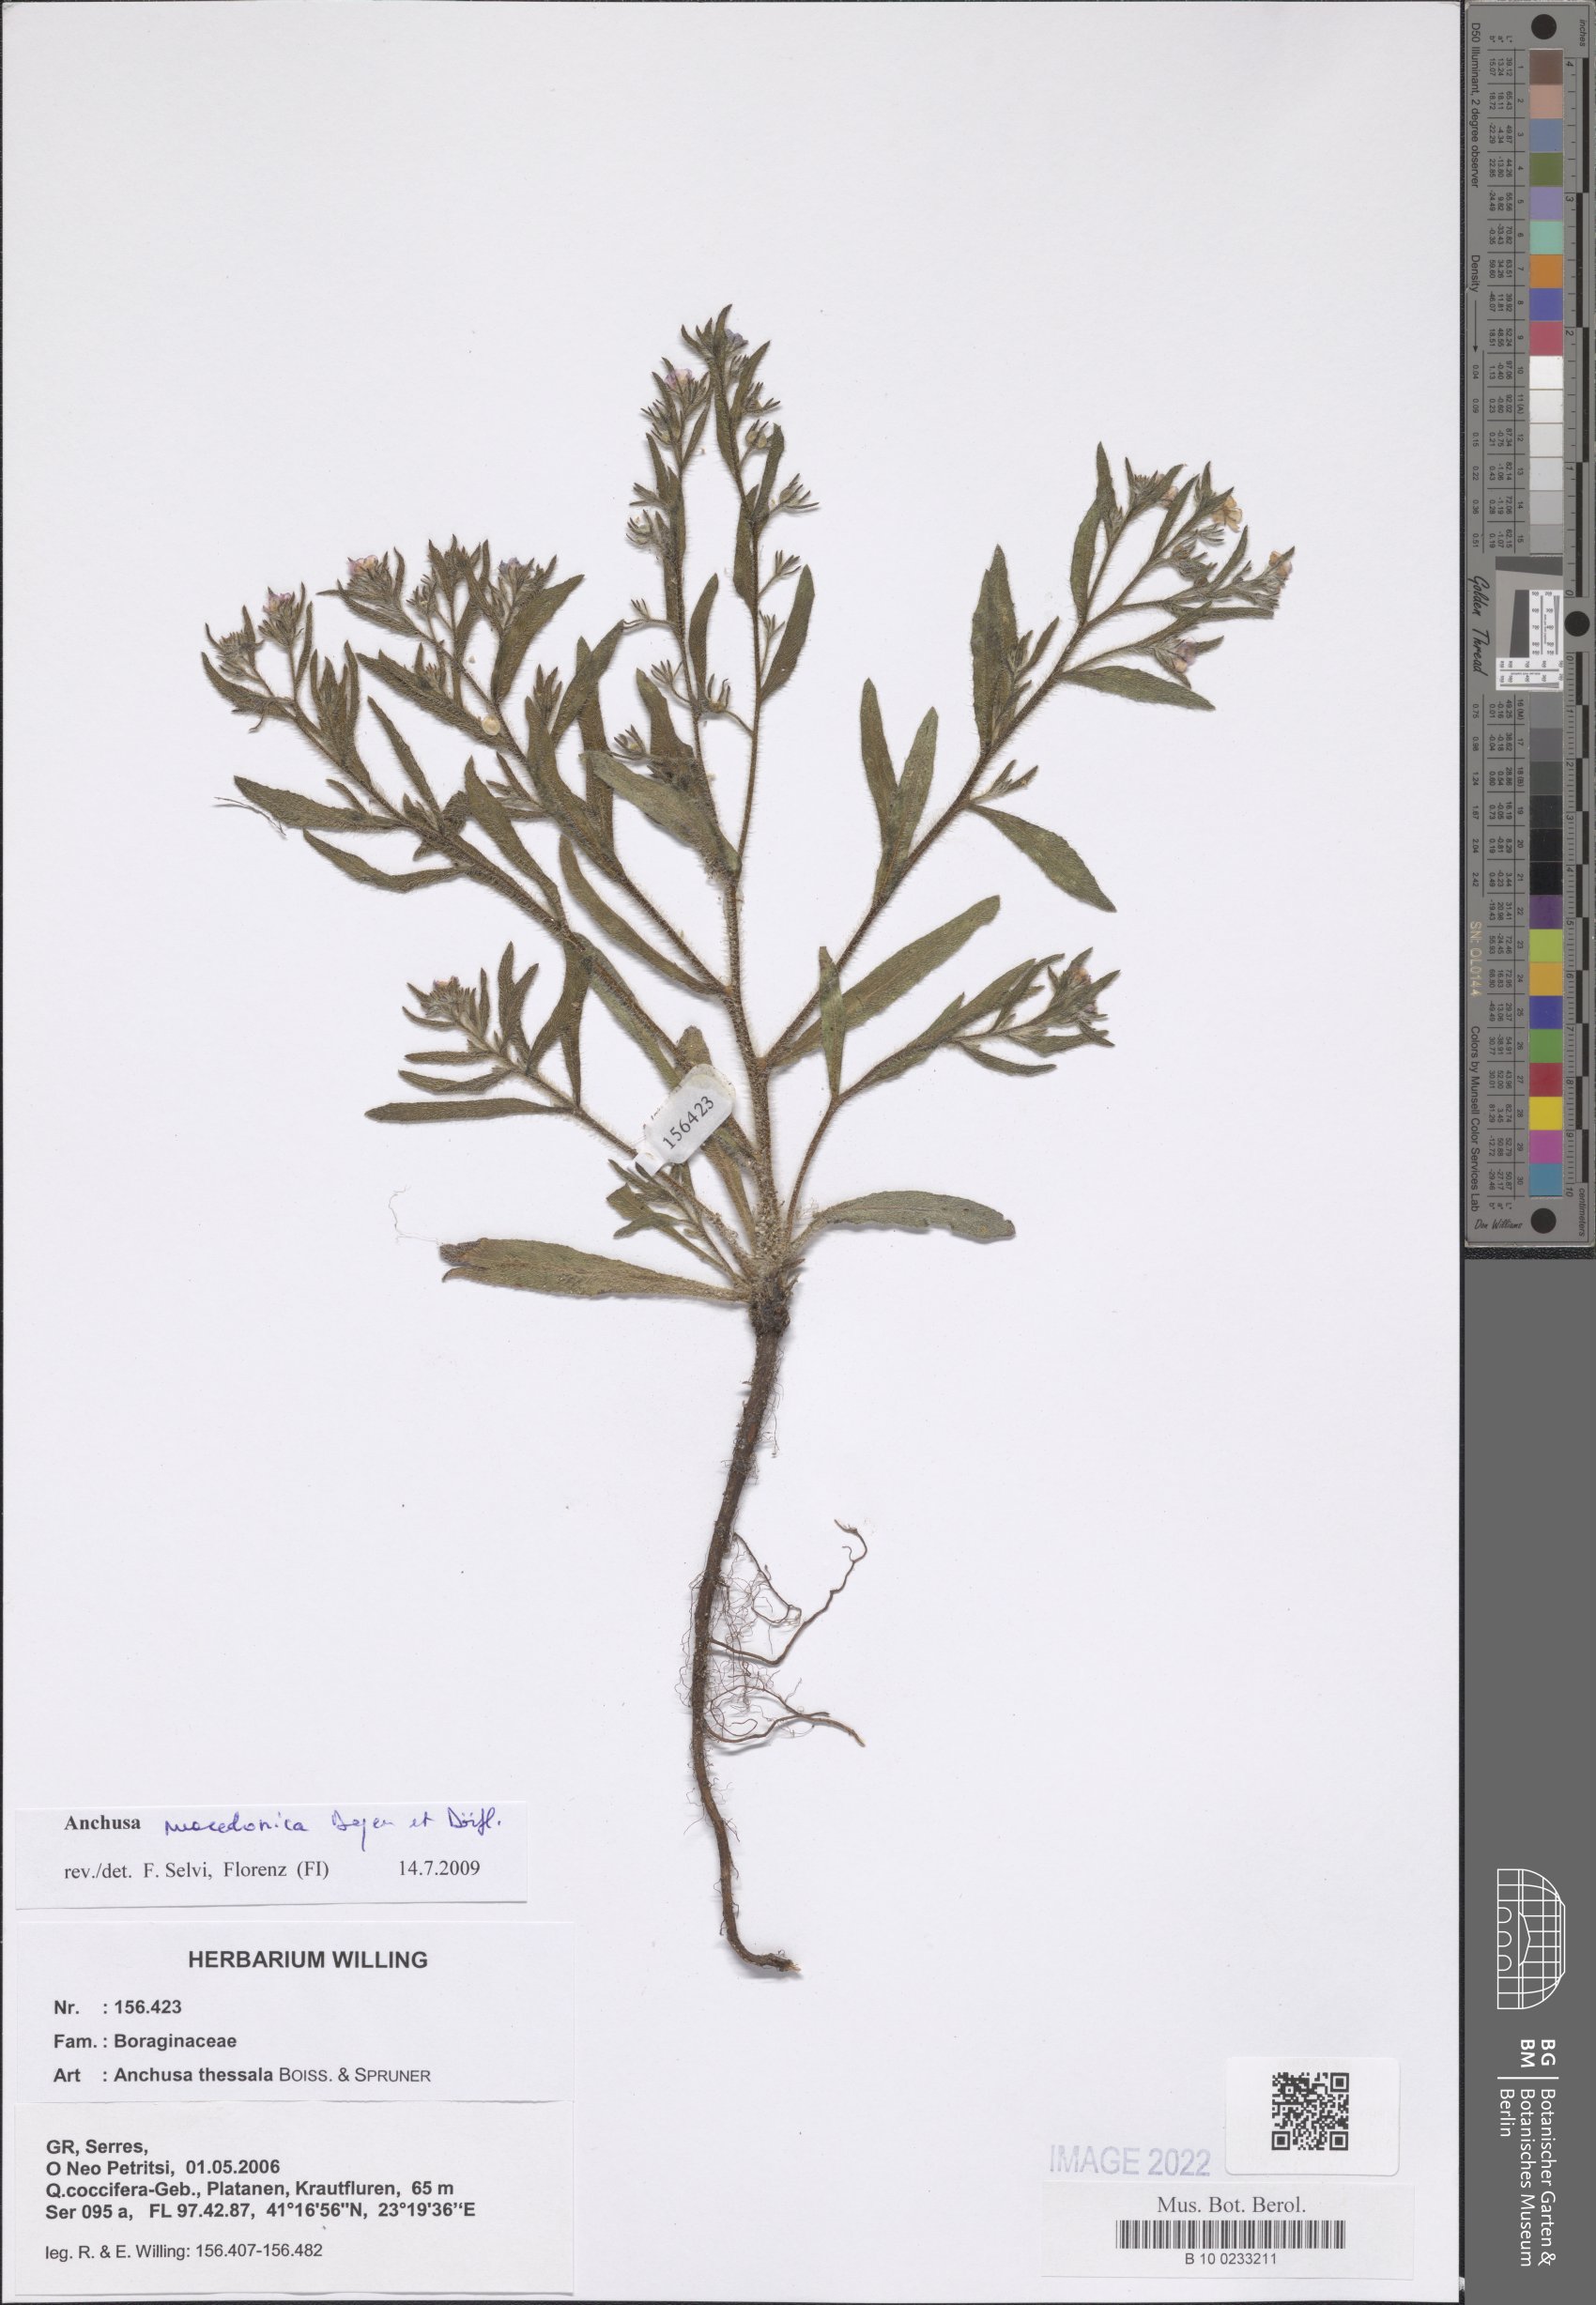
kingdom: Plantae
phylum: Tracheophyta
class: Magnoliopsida
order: Boraginales
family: Boraginaceae
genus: Anchusa
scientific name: Anchusa thessala
